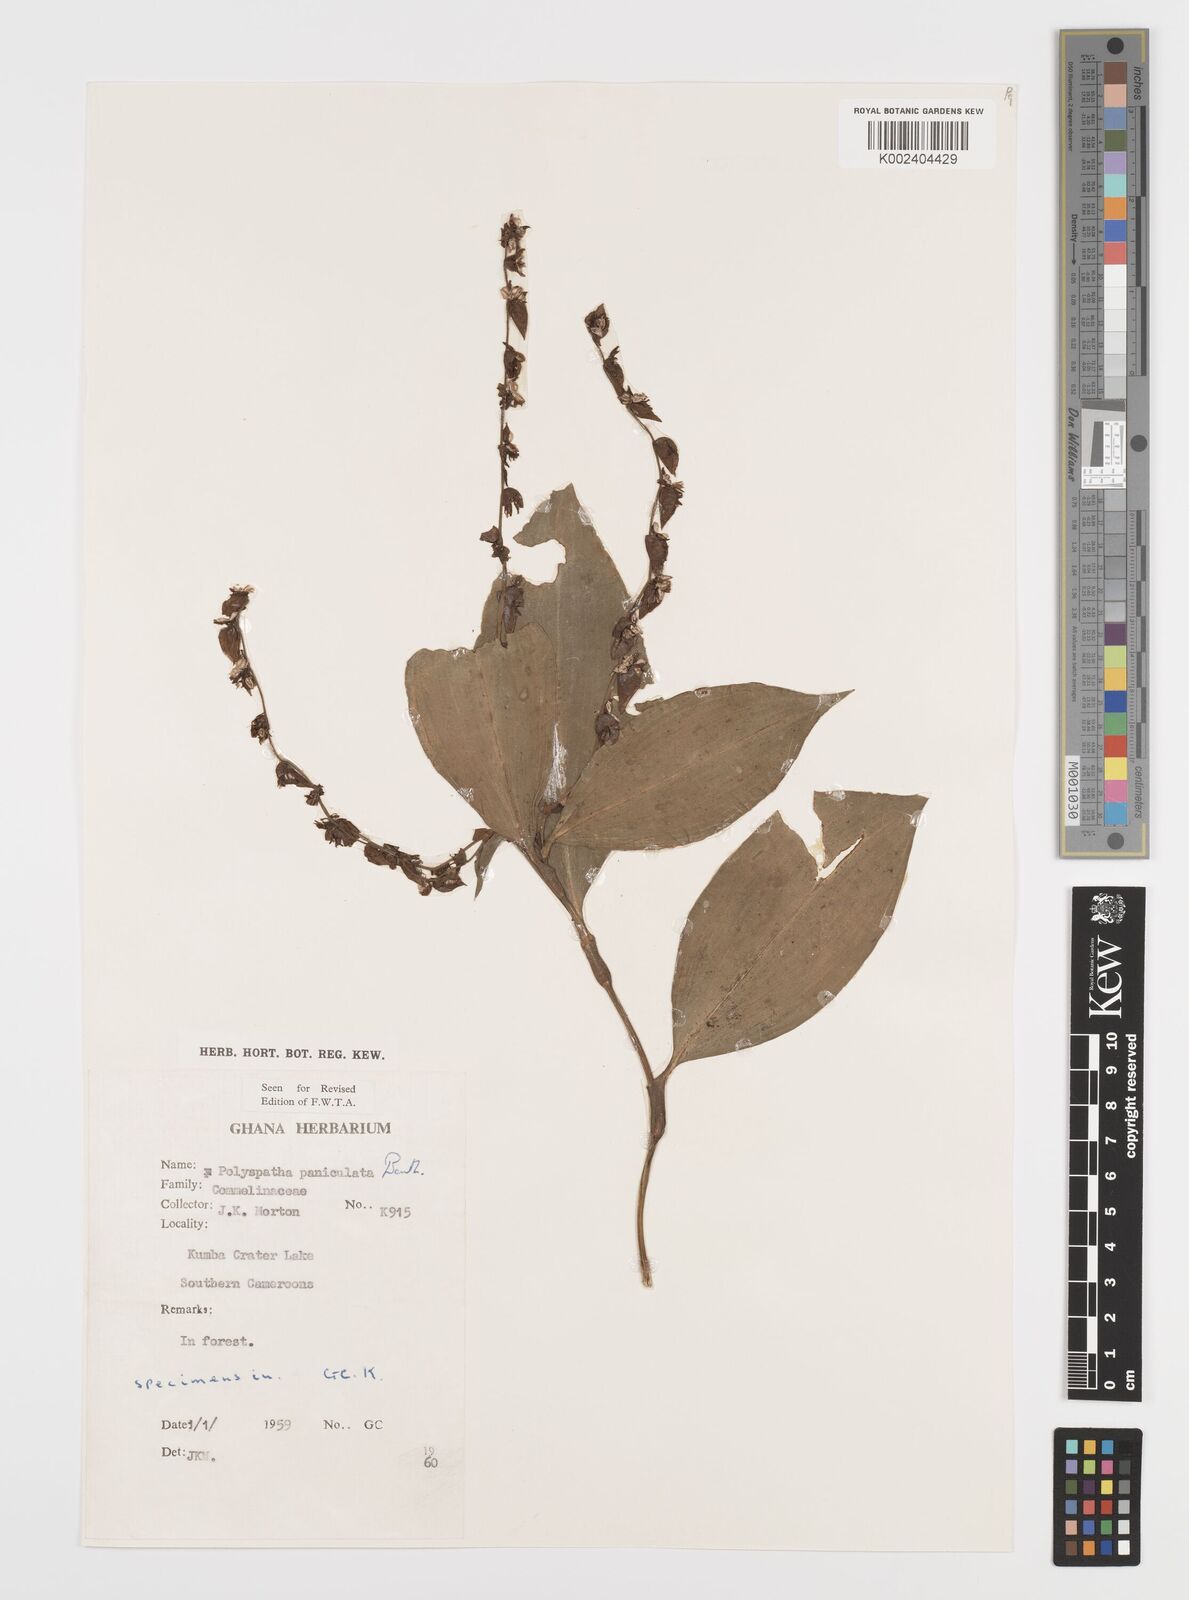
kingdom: Plantae
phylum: Tracheophyta
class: Liliopsida
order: Commelinales
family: Commelinaceae
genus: Polyspatha
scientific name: Polyspatha paniculata
